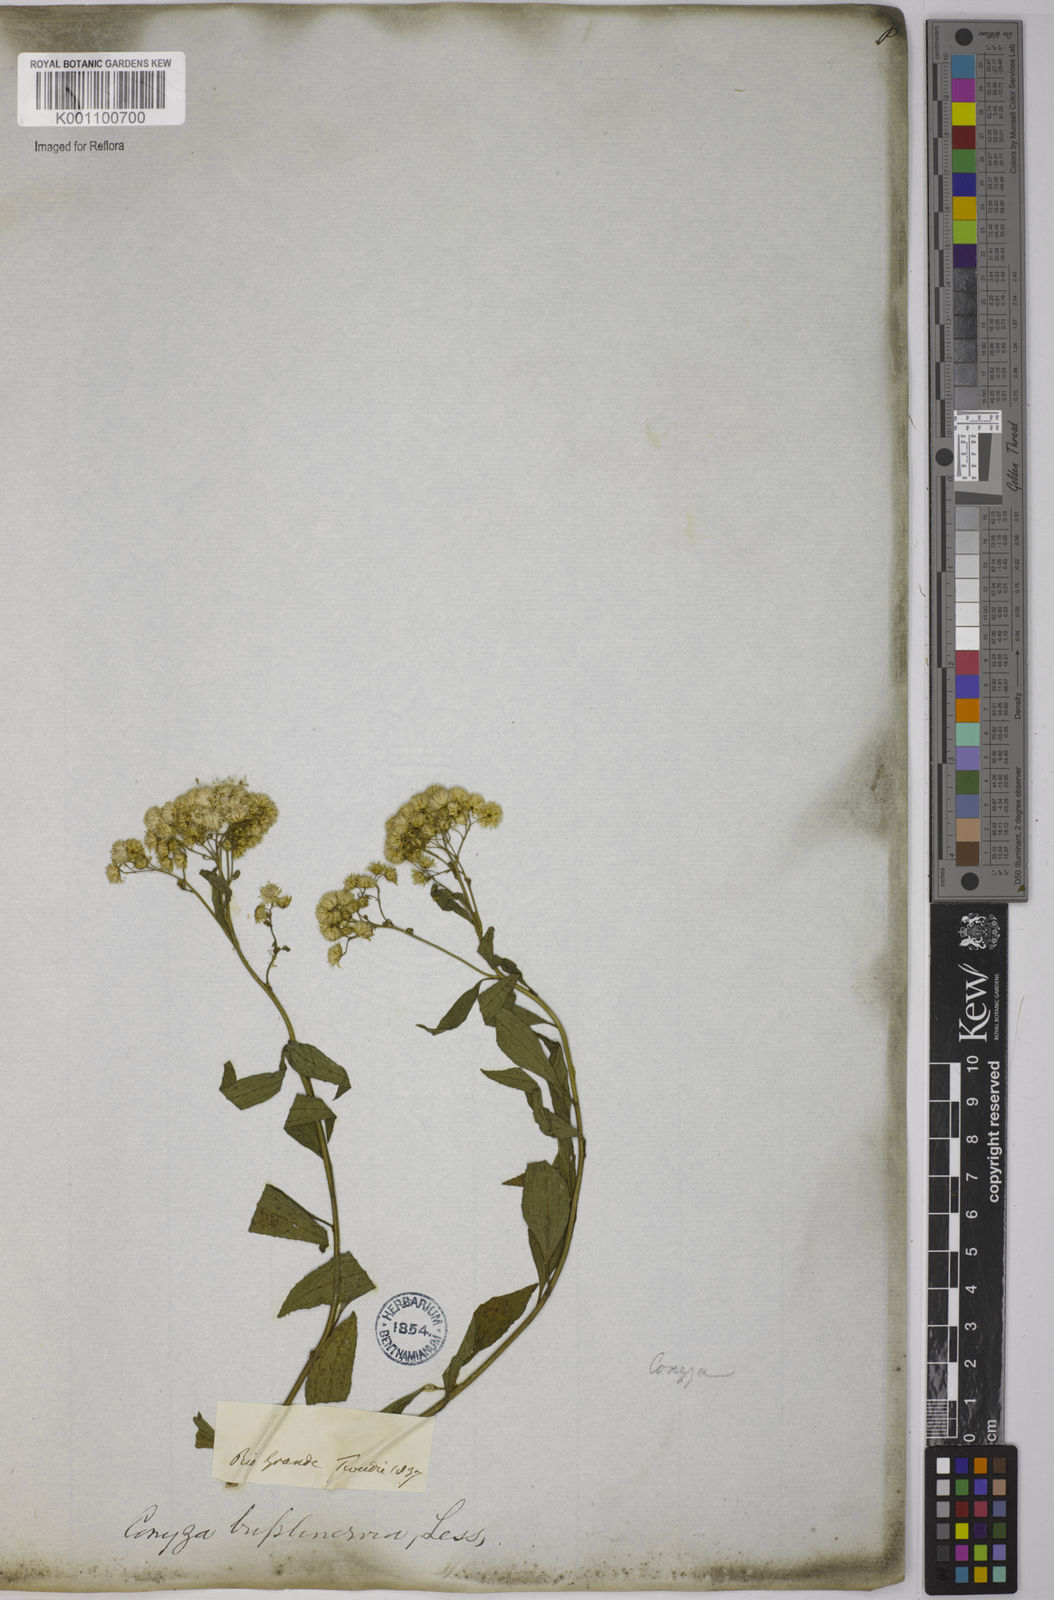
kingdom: Plantae
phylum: Tracheophyta
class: Magnoliopsida
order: Asterales
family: Asteraceae
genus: Archibaccharis
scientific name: Archibaccharis vulneraria
